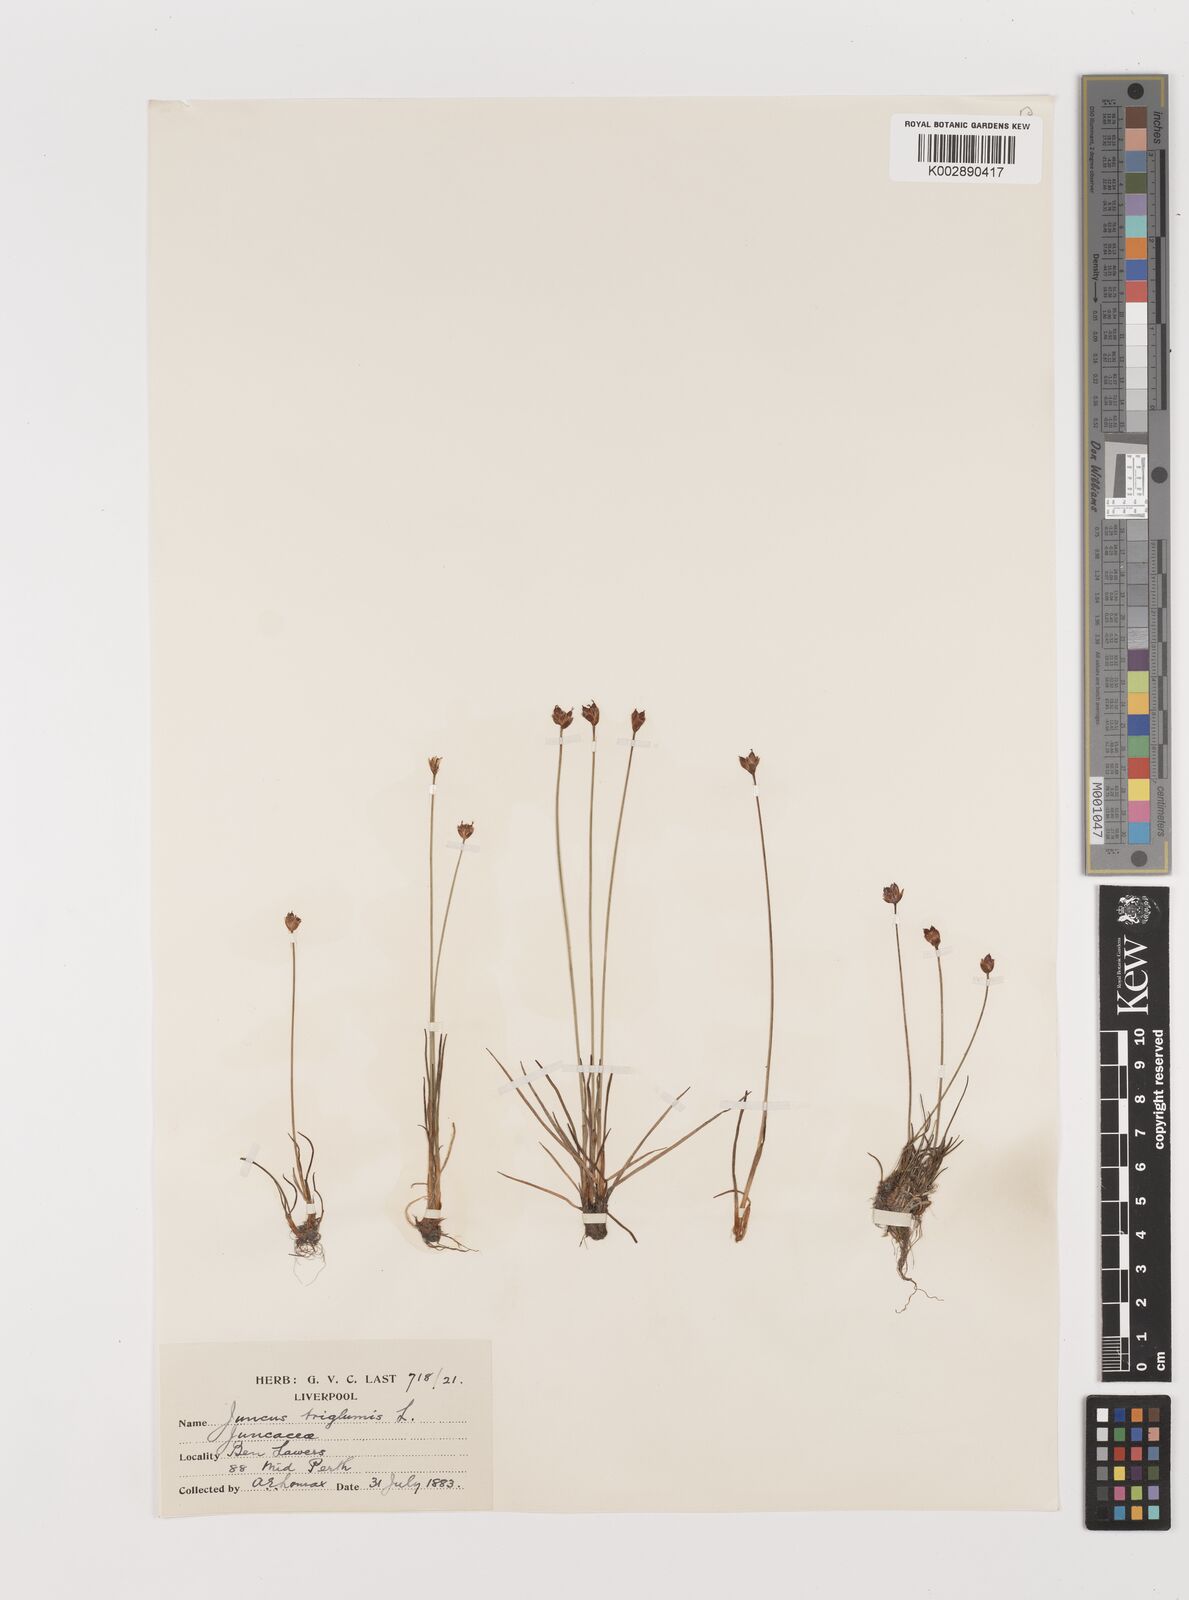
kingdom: Plantae
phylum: Tracheophyta
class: Liliopsida
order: Poales
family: Juncaceae
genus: Juncus
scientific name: Juncus triglumis
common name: Three-flowered rush
